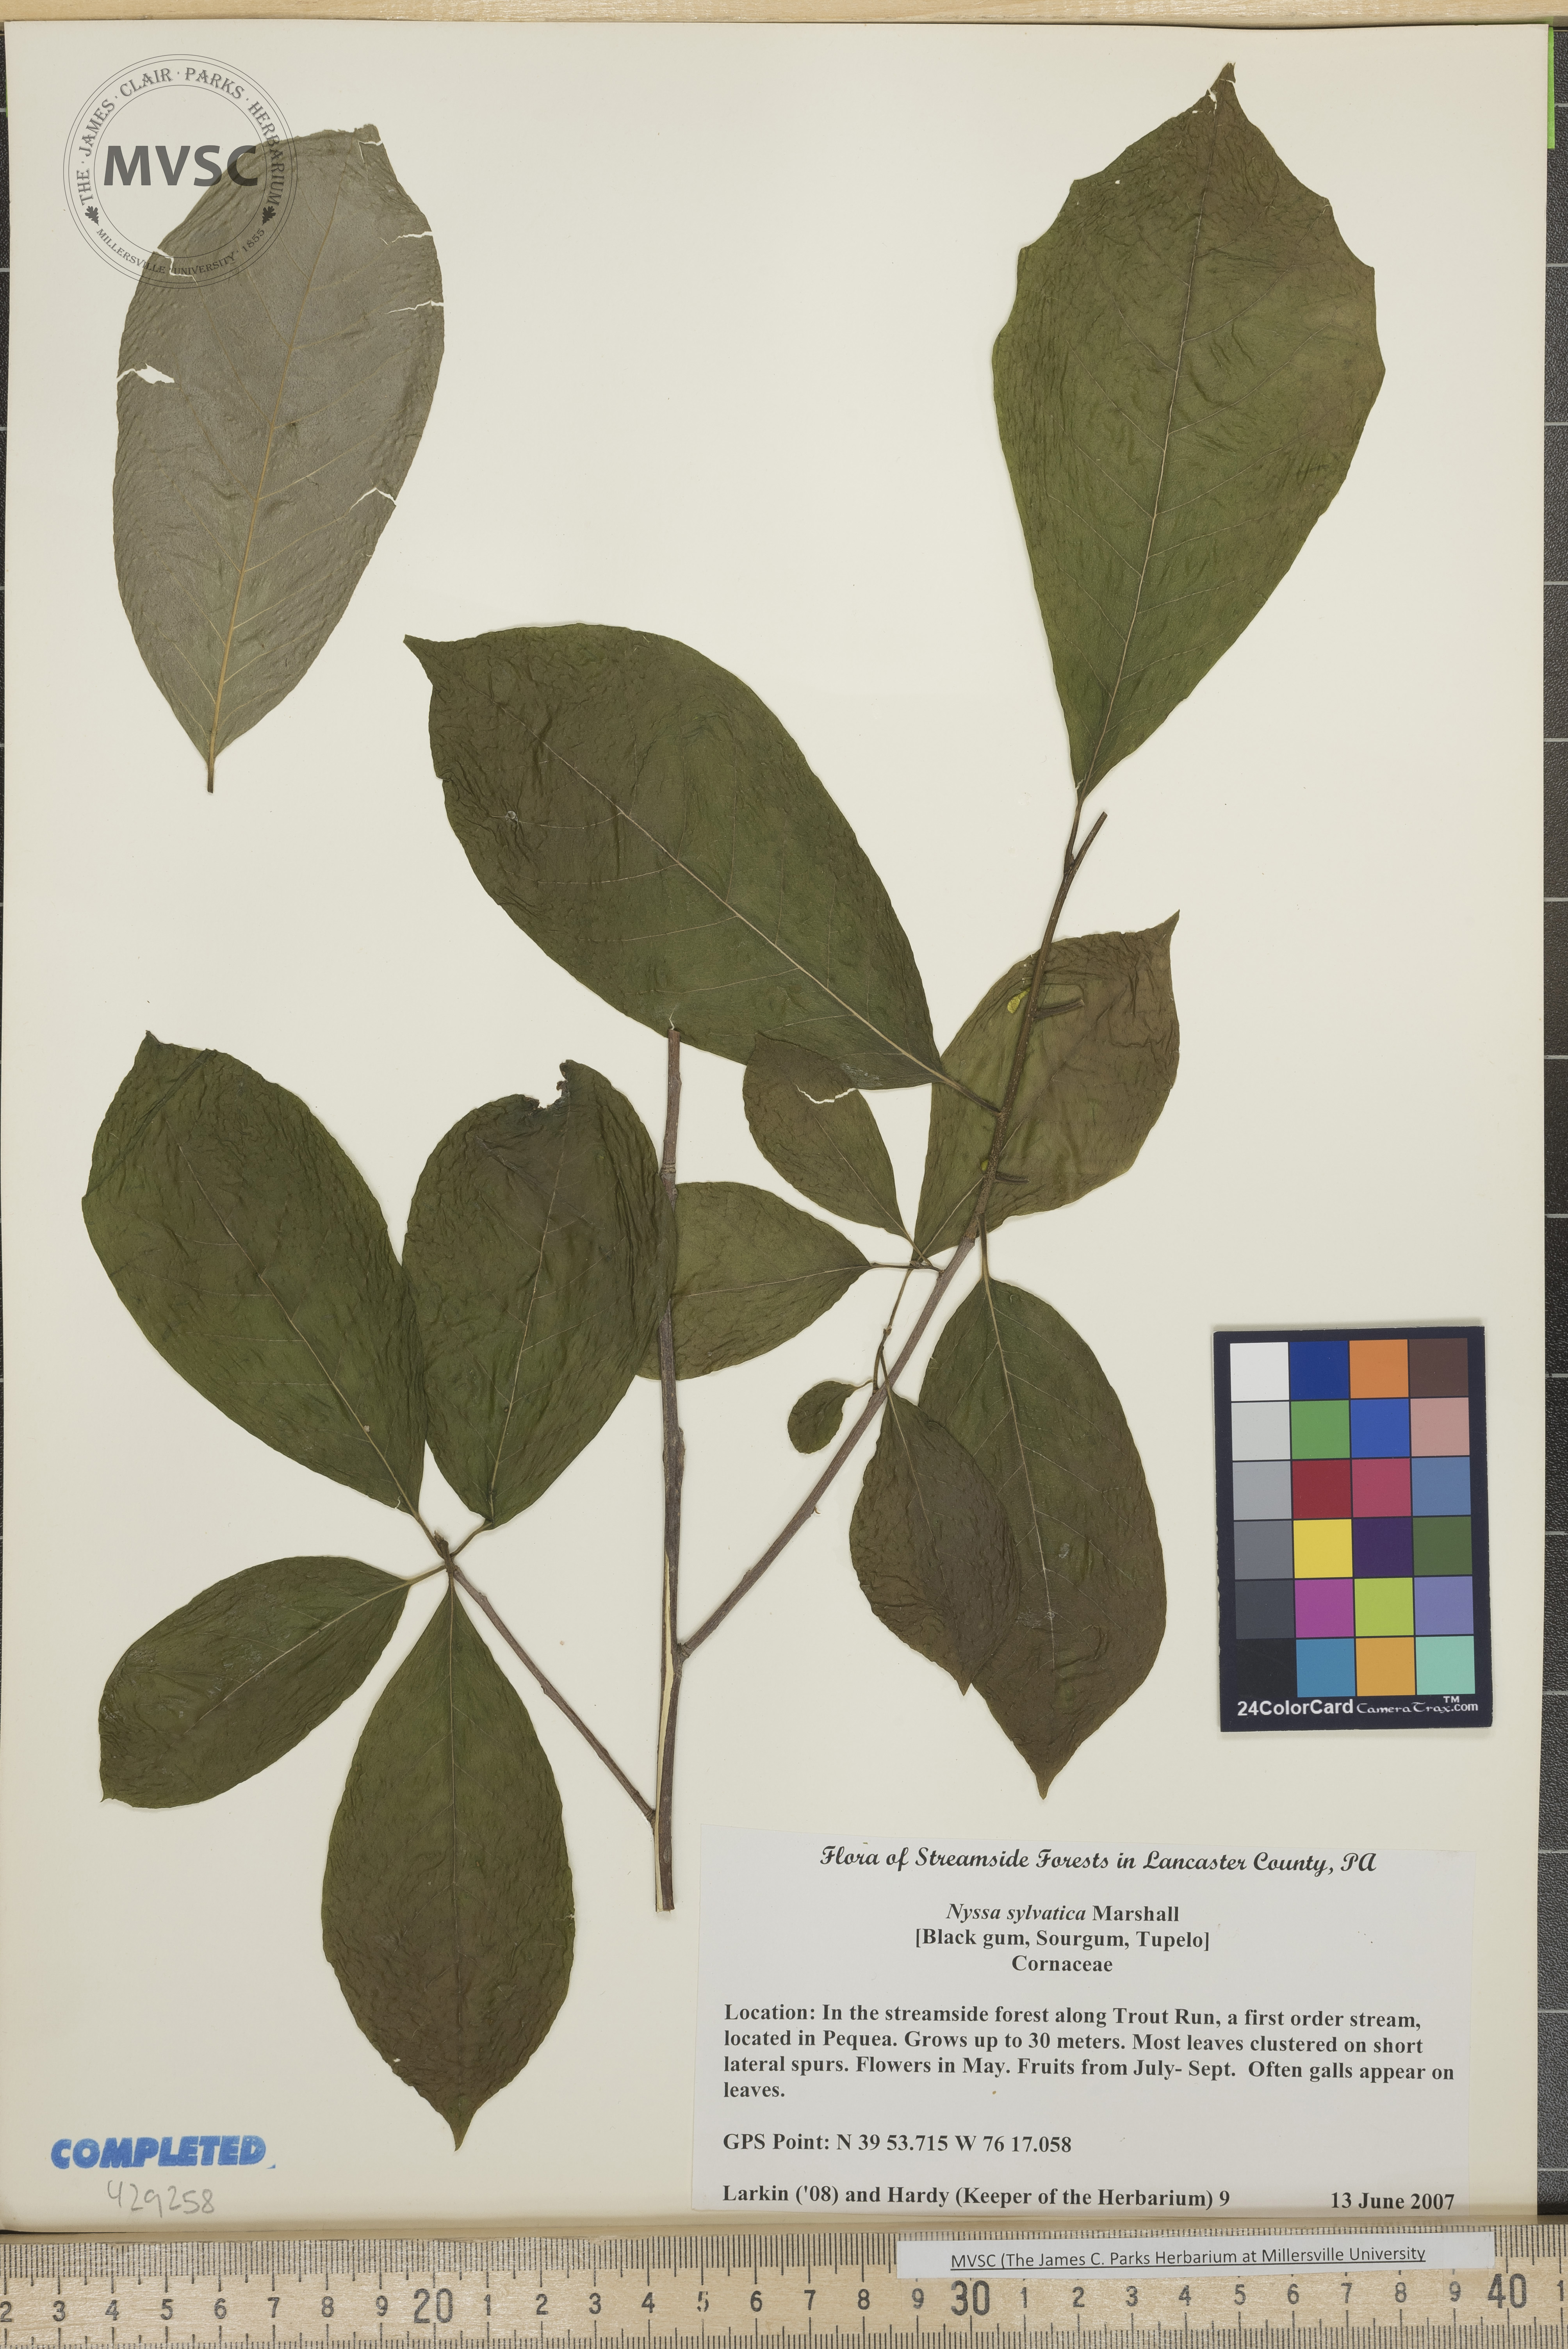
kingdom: Plantae
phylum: Tracheophyta
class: Magnoliopsida
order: Cornales
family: Nyssaceae
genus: Nyssa
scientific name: Nyssa sylvatica
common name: Black gum
